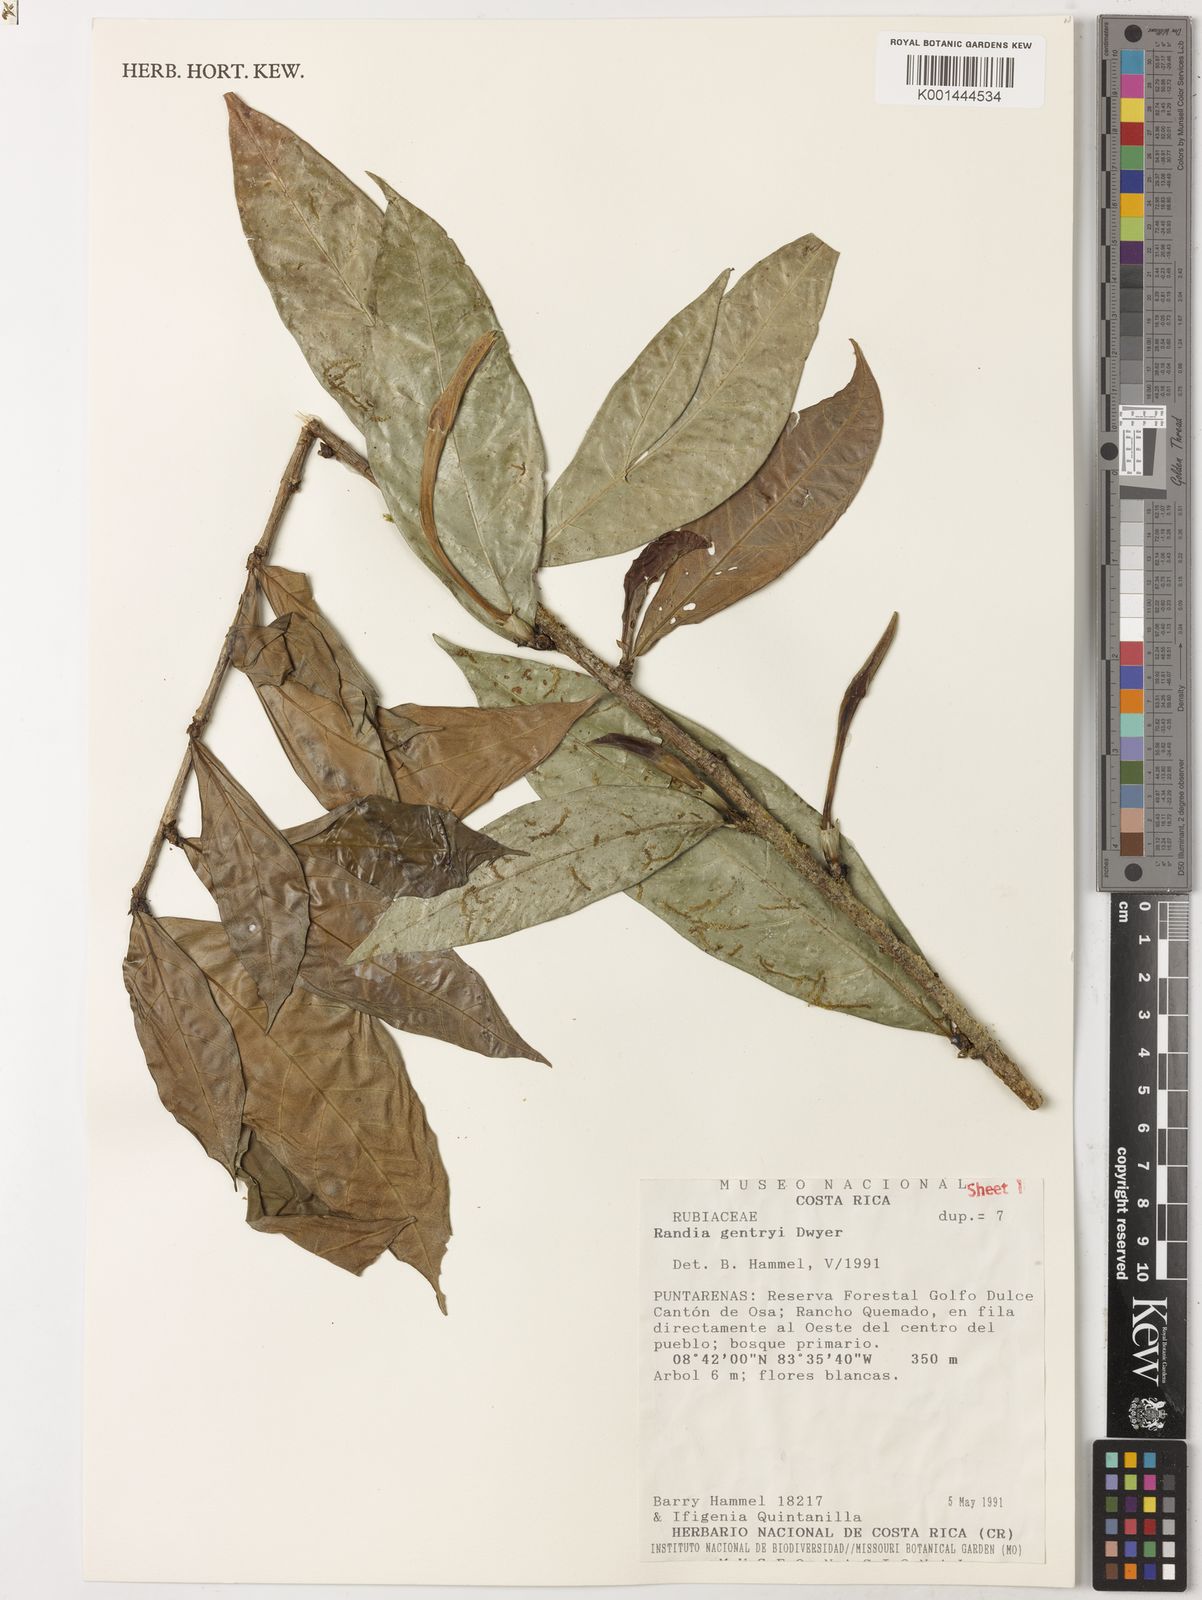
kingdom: Plantae
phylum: Tracheophyta
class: Magnoliopsida
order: Gentianales
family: Rubiaceae
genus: Randia
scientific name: Randia gentryi
